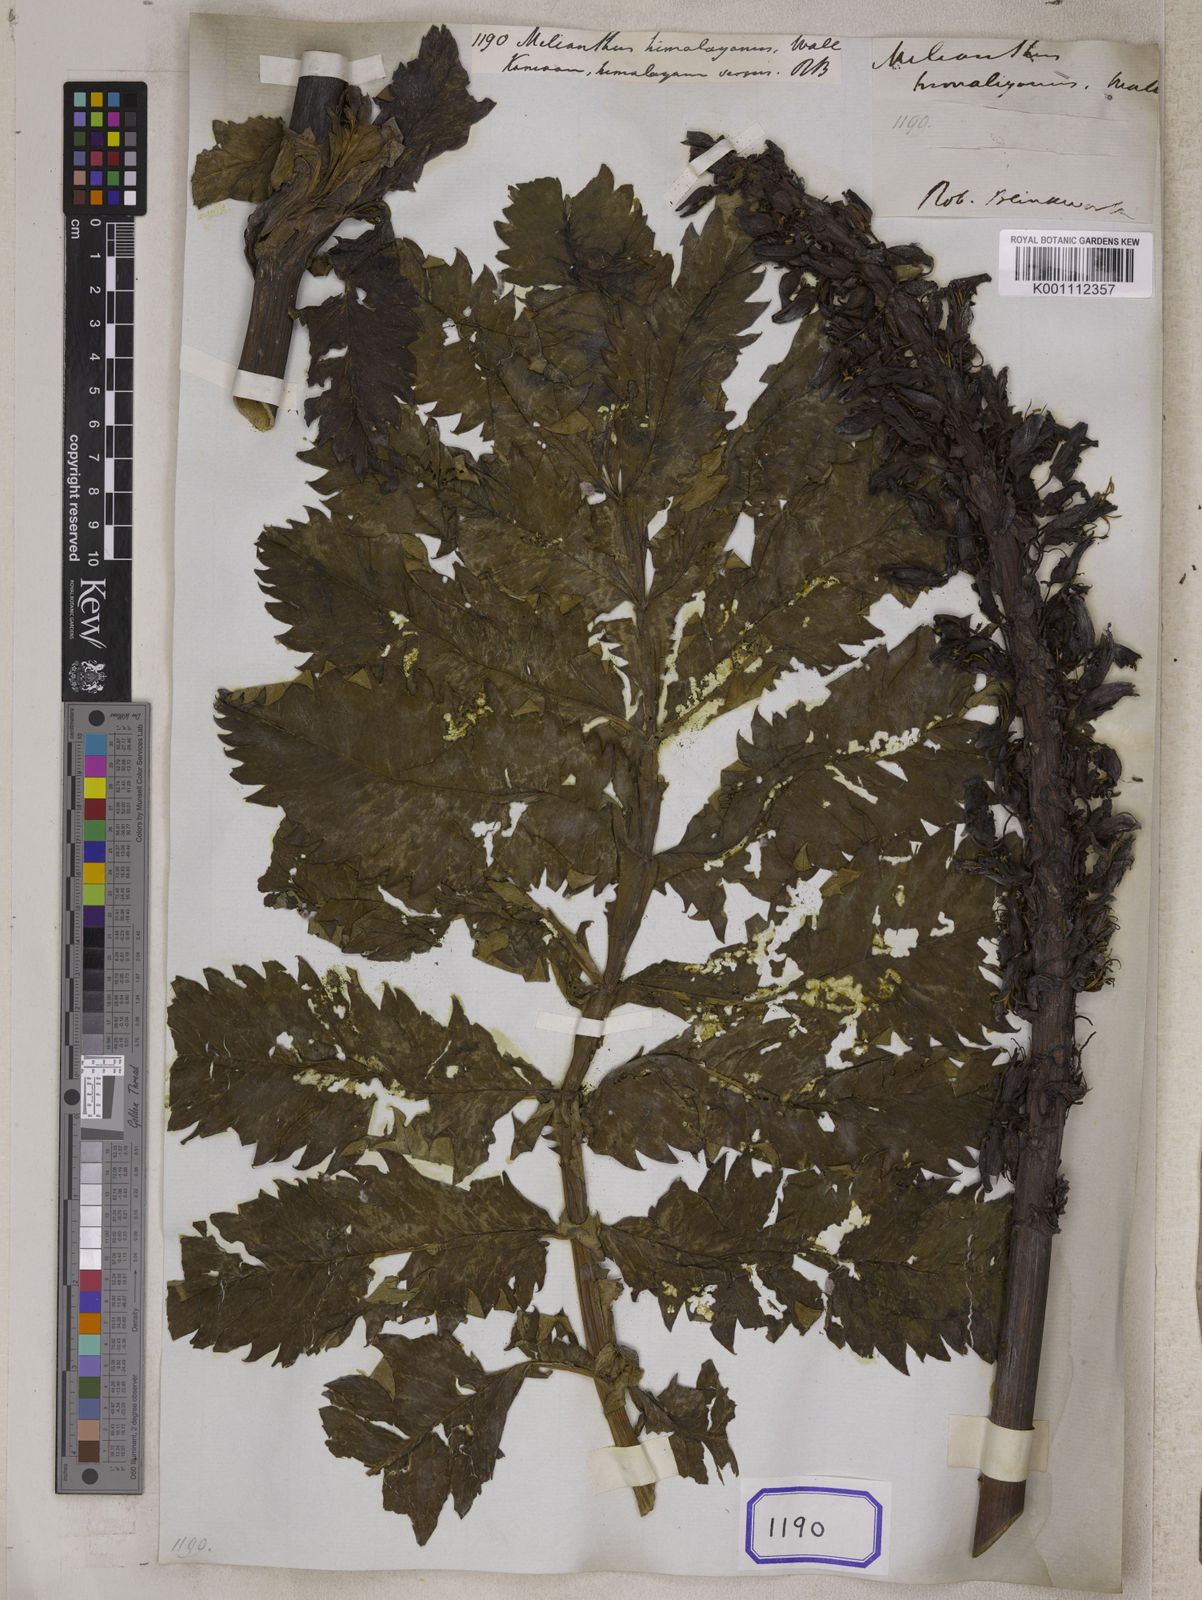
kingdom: Plantae
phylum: Tracheophyta
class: Magnoliopsida
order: Geraniales
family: Melianthaceae
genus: Melianthus
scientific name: Melianthus major
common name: Honey-flower
